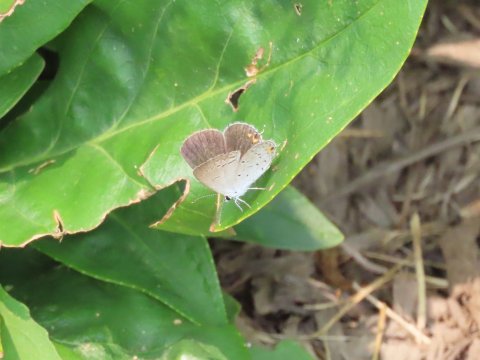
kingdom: Animalia
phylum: Arthropoda
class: Insecta
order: Lepidoptera
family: Lycaenidae
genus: Elkalyce
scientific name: Elkalyce comyntas
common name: Eastern Tailed-Blue
